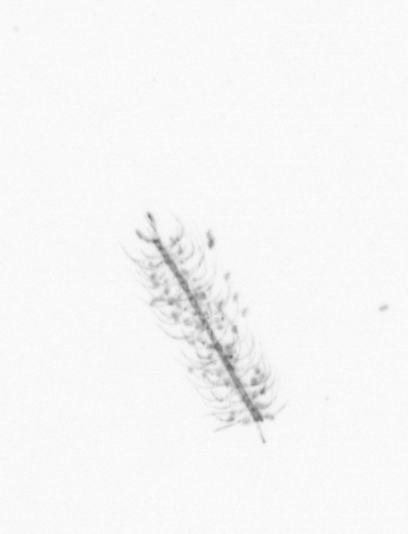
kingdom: Chromista
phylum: Ochrophyta
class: Bacillariophyceae
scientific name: Bacillariophyceae
